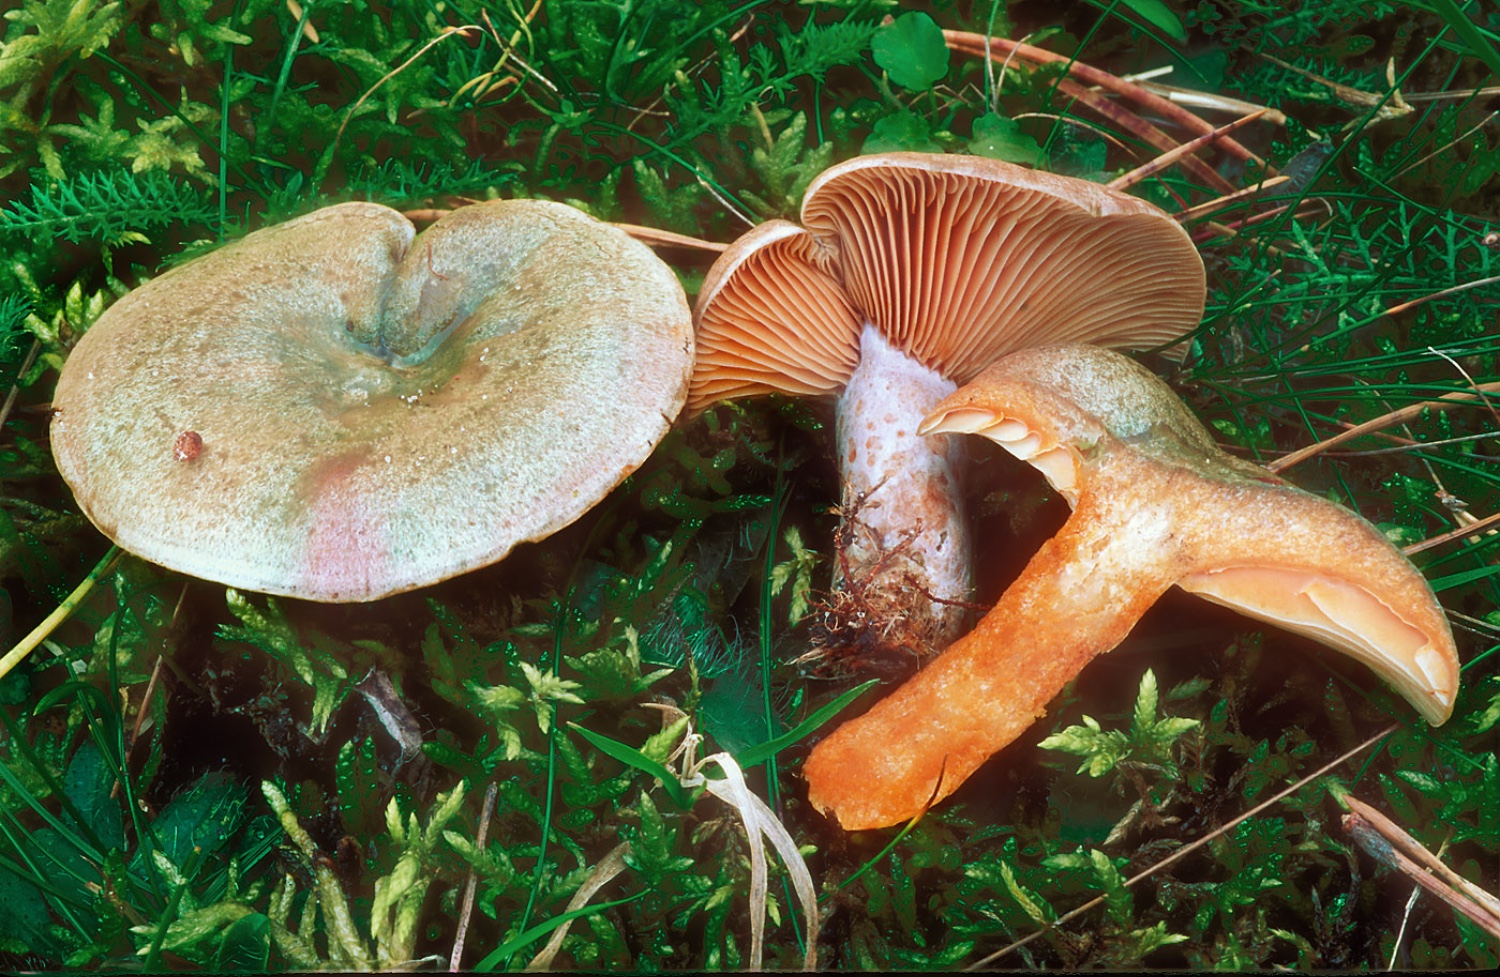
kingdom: Fungi
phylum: Basidiomycota
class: Agaricomycetes
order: Russulales
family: Russulaceae
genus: Lactarius
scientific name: Lactarius semisanguifluus
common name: irret mælkehat
